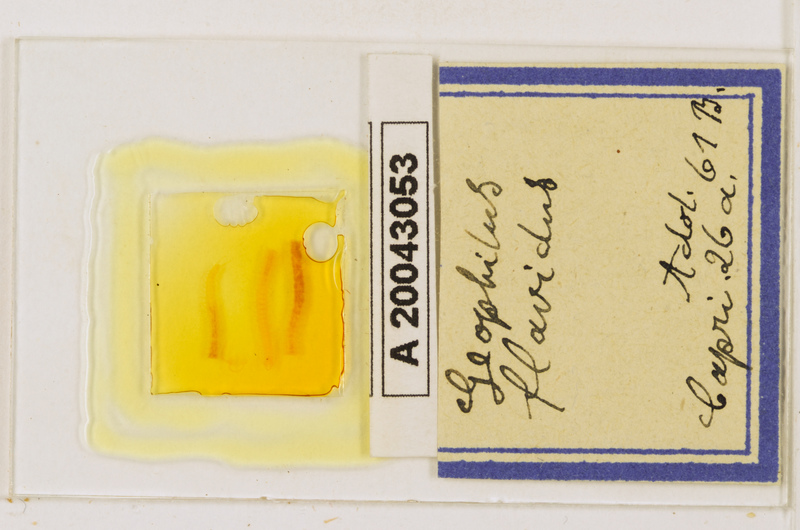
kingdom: Animalia
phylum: Arthropoda
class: Chilopoda
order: Geophilomorpha
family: Geophilidae
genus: Clinopodes
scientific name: Clinopodes flavidus
